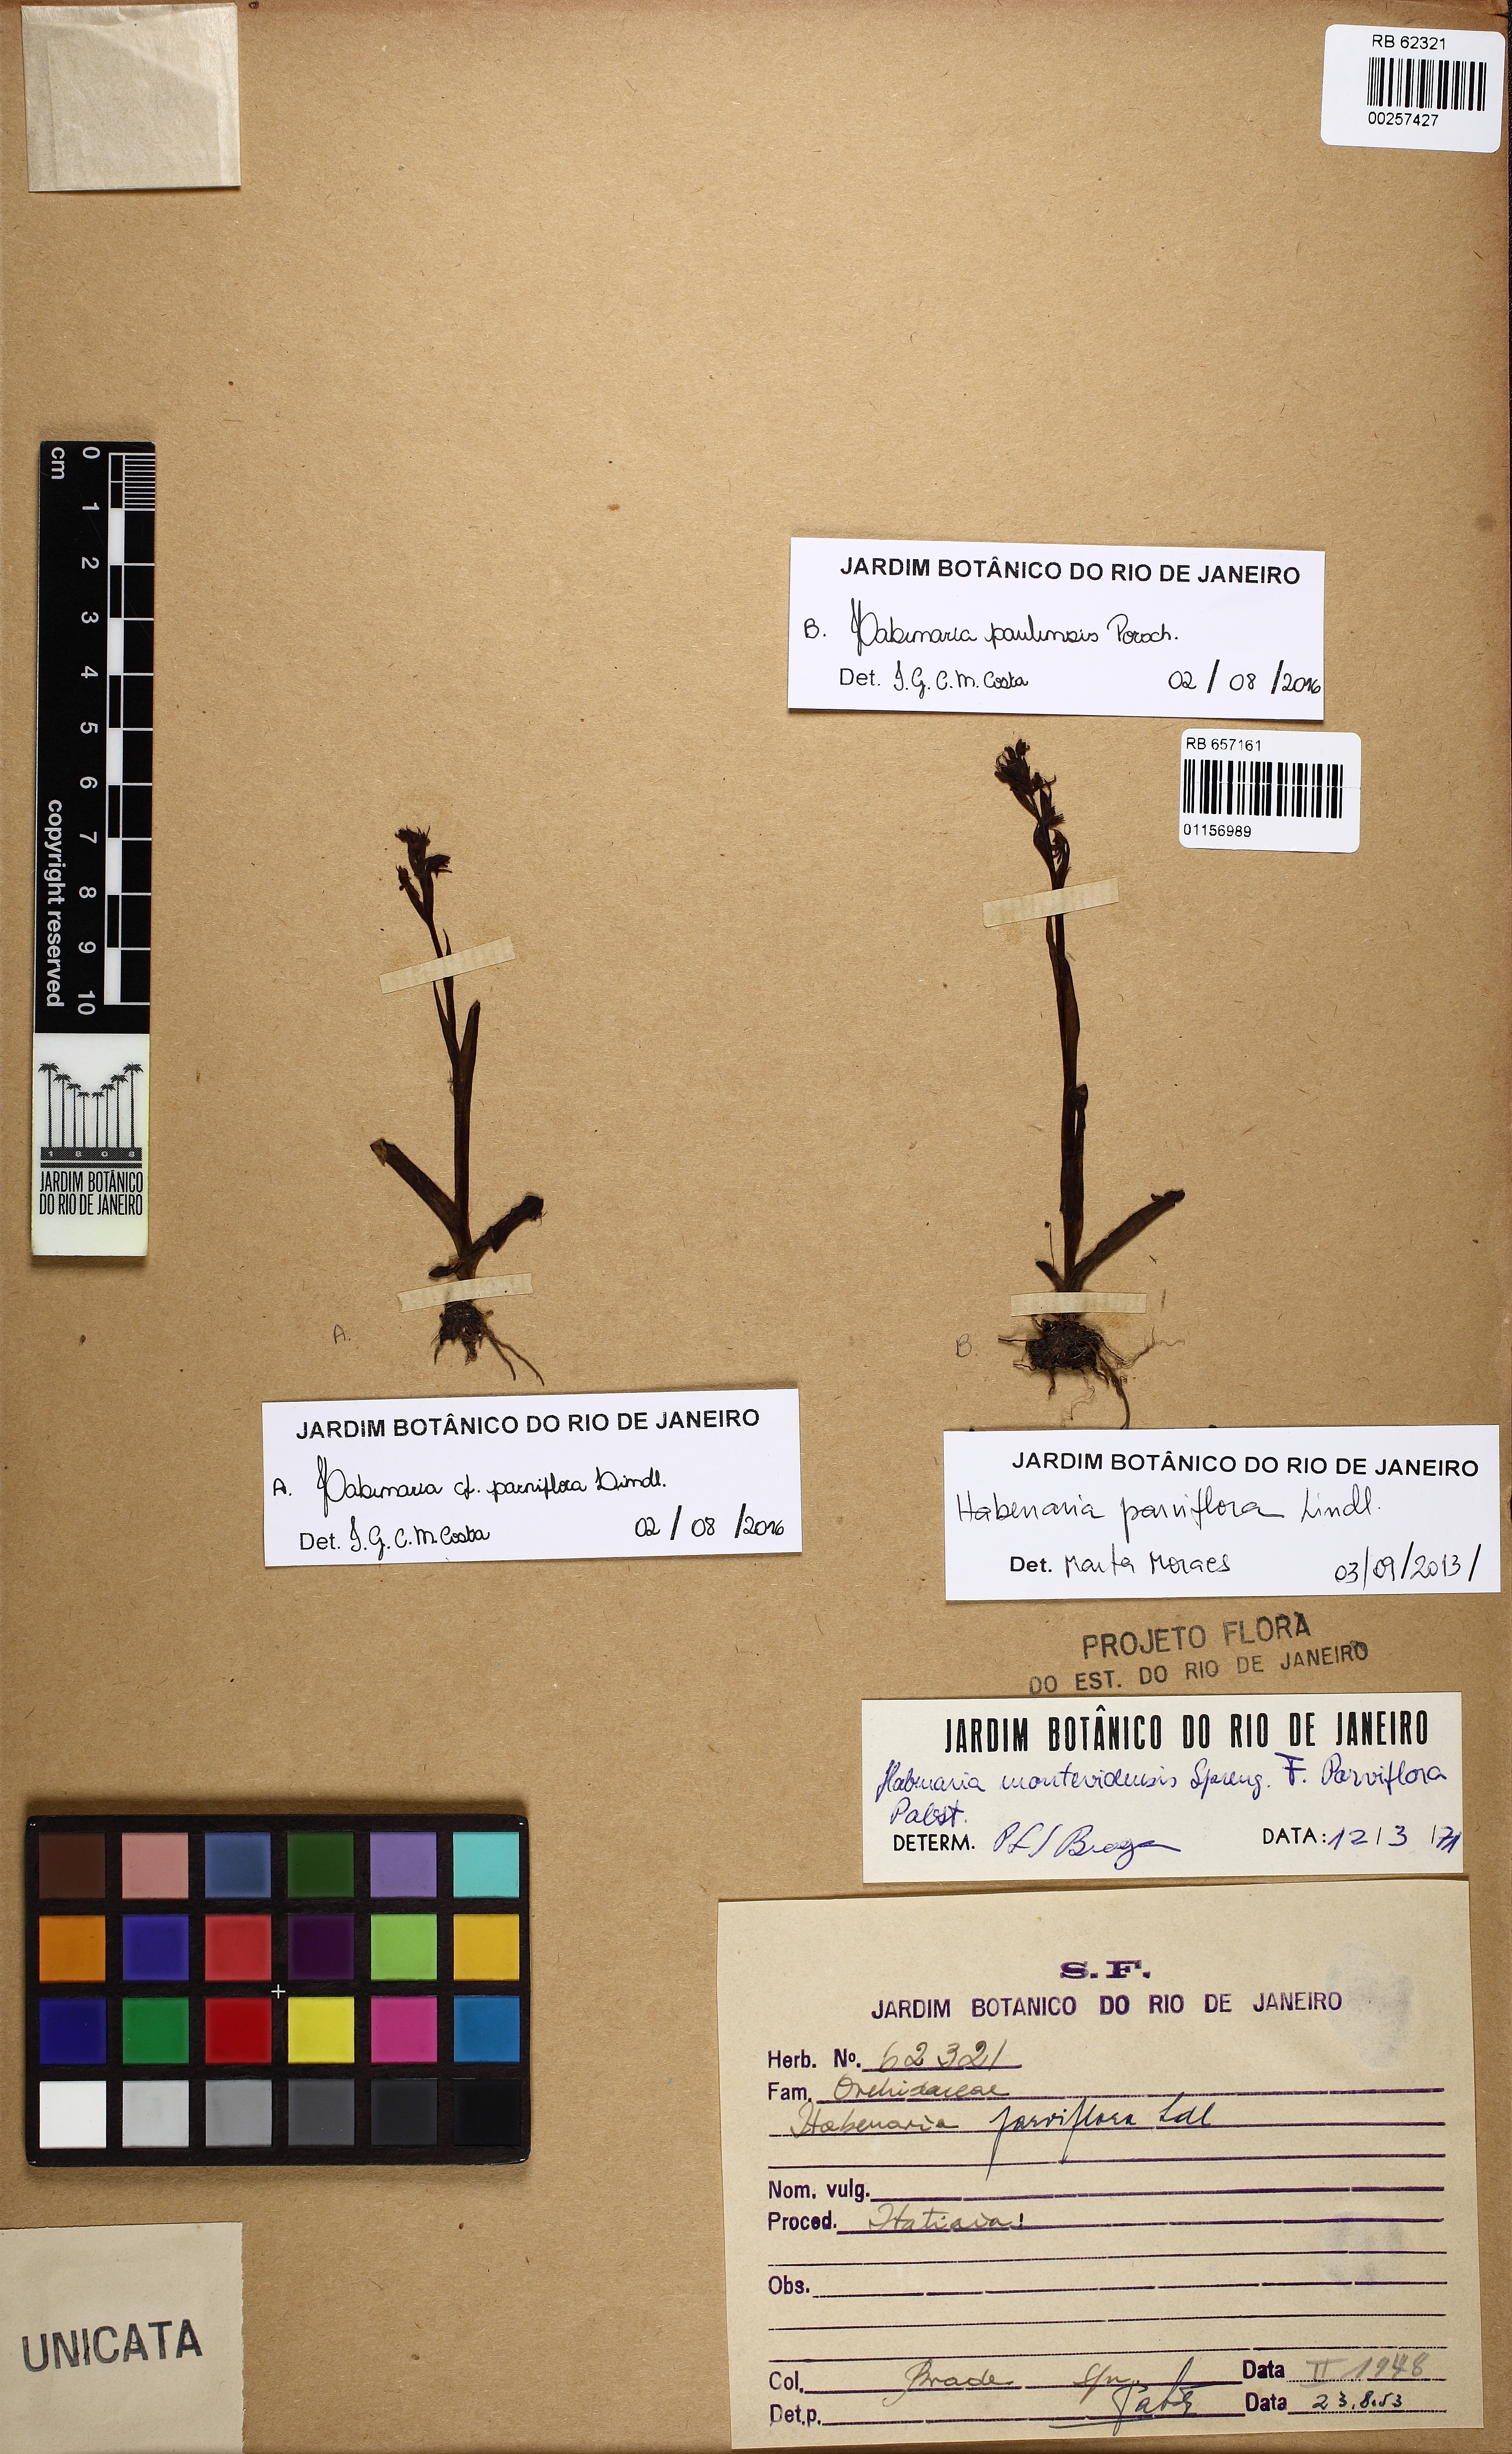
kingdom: Plantae
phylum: Tracheophyta
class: Liliopsida
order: Asparagales
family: Orchidaceae
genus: Habenaria
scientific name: Habenaria parviflora
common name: Small flowered habenaria
